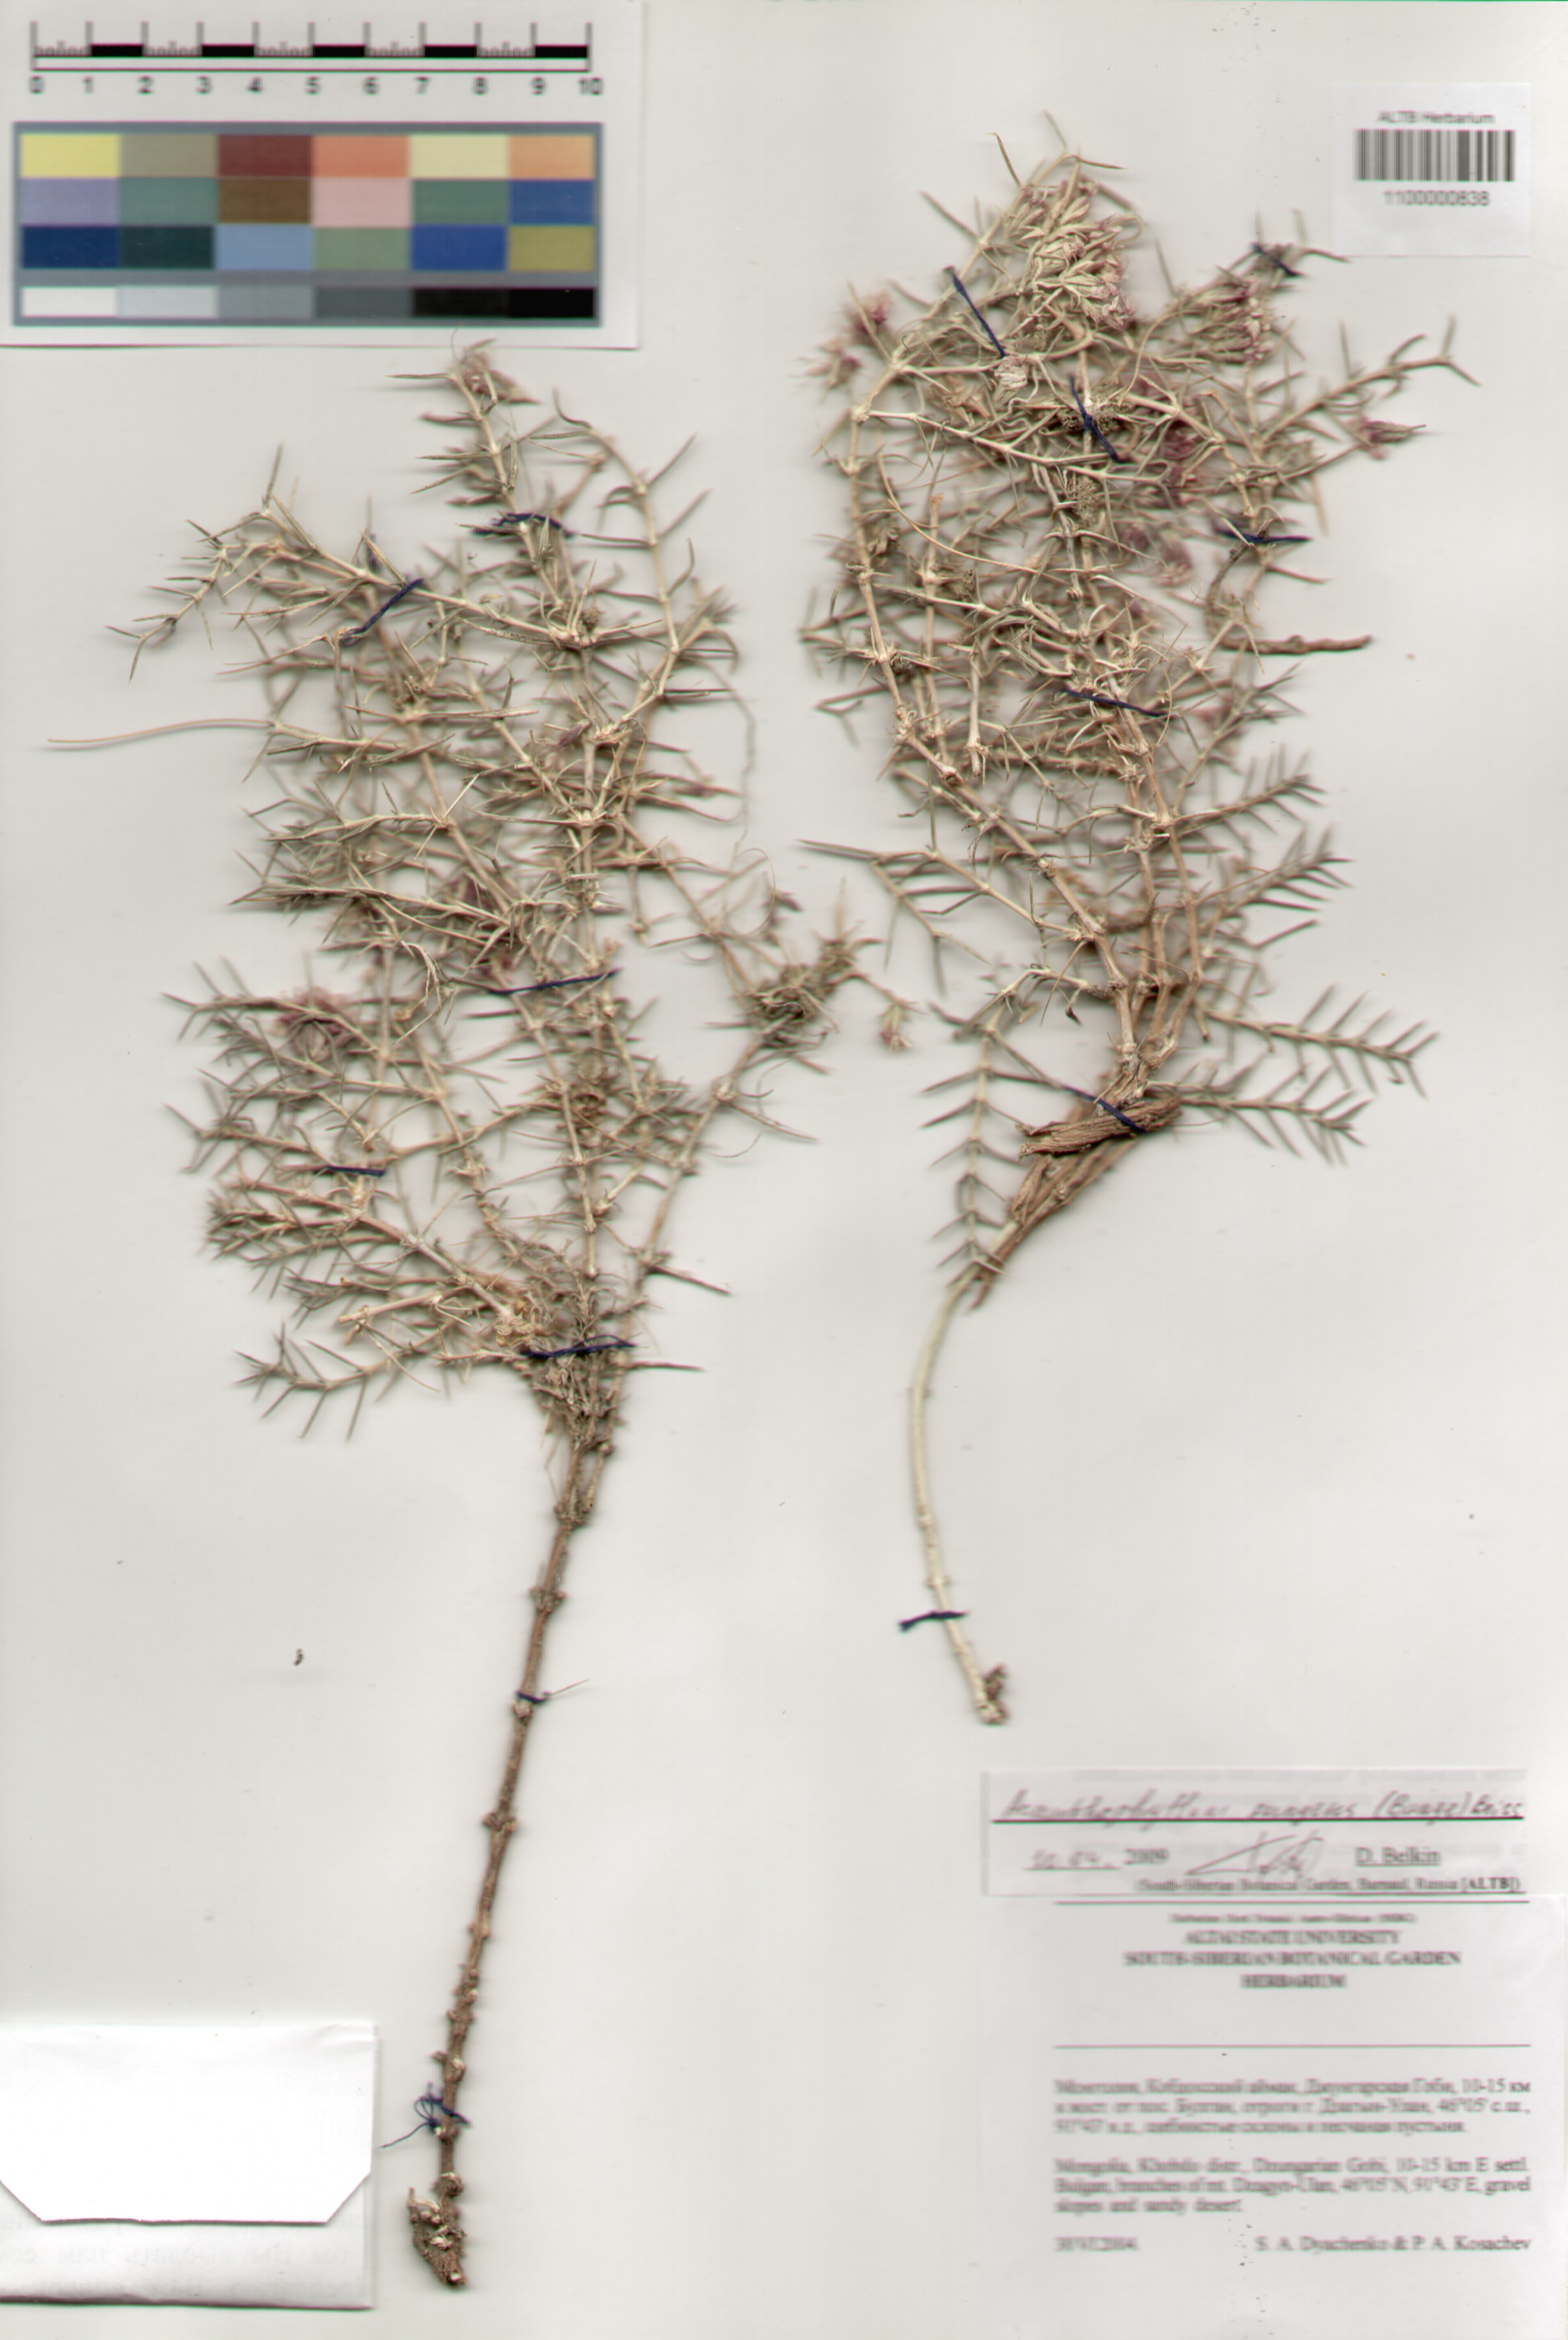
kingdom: Plantae
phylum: Tracheophyta
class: Magnoliopsida
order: Caryophyllales
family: Caryophyllaceae
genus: Acanthophyllum
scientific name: Acanthophyllum pungens
